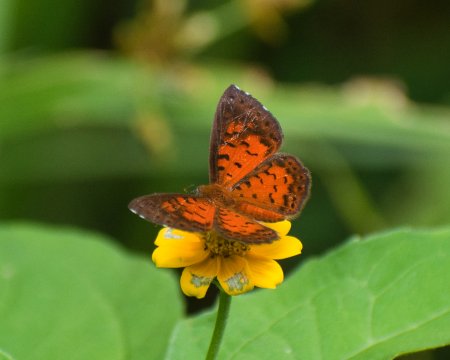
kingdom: Animalia
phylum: Arthropoda
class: Insecta
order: Lepidoptera
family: Riodinidae
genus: Polystichtis
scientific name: Polystichtis lucianus
